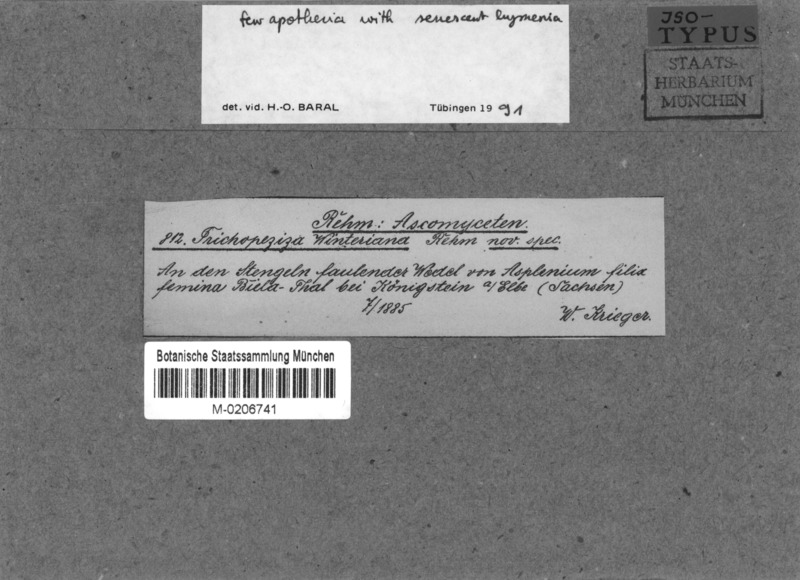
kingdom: Fungi
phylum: Ascomycota
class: Leotiomycetes
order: Helotiales
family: Hyaloscyphaceae
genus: Hyalopeziza
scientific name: Hyalopeziza winteriana
